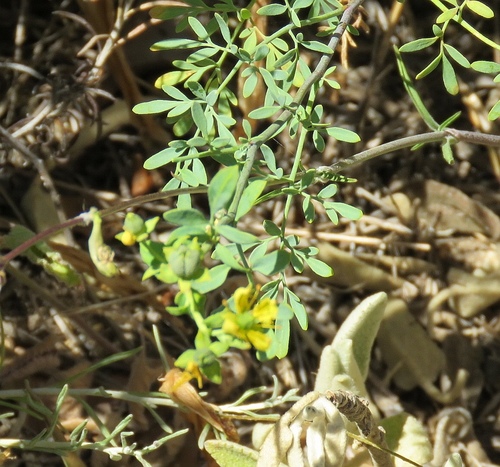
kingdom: Plantae
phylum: Tracheophyta
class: Magnoliopsida
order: Sapindales
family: Rutaceae
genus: Ruta
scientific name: Ruta graveolens
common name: Common rue
